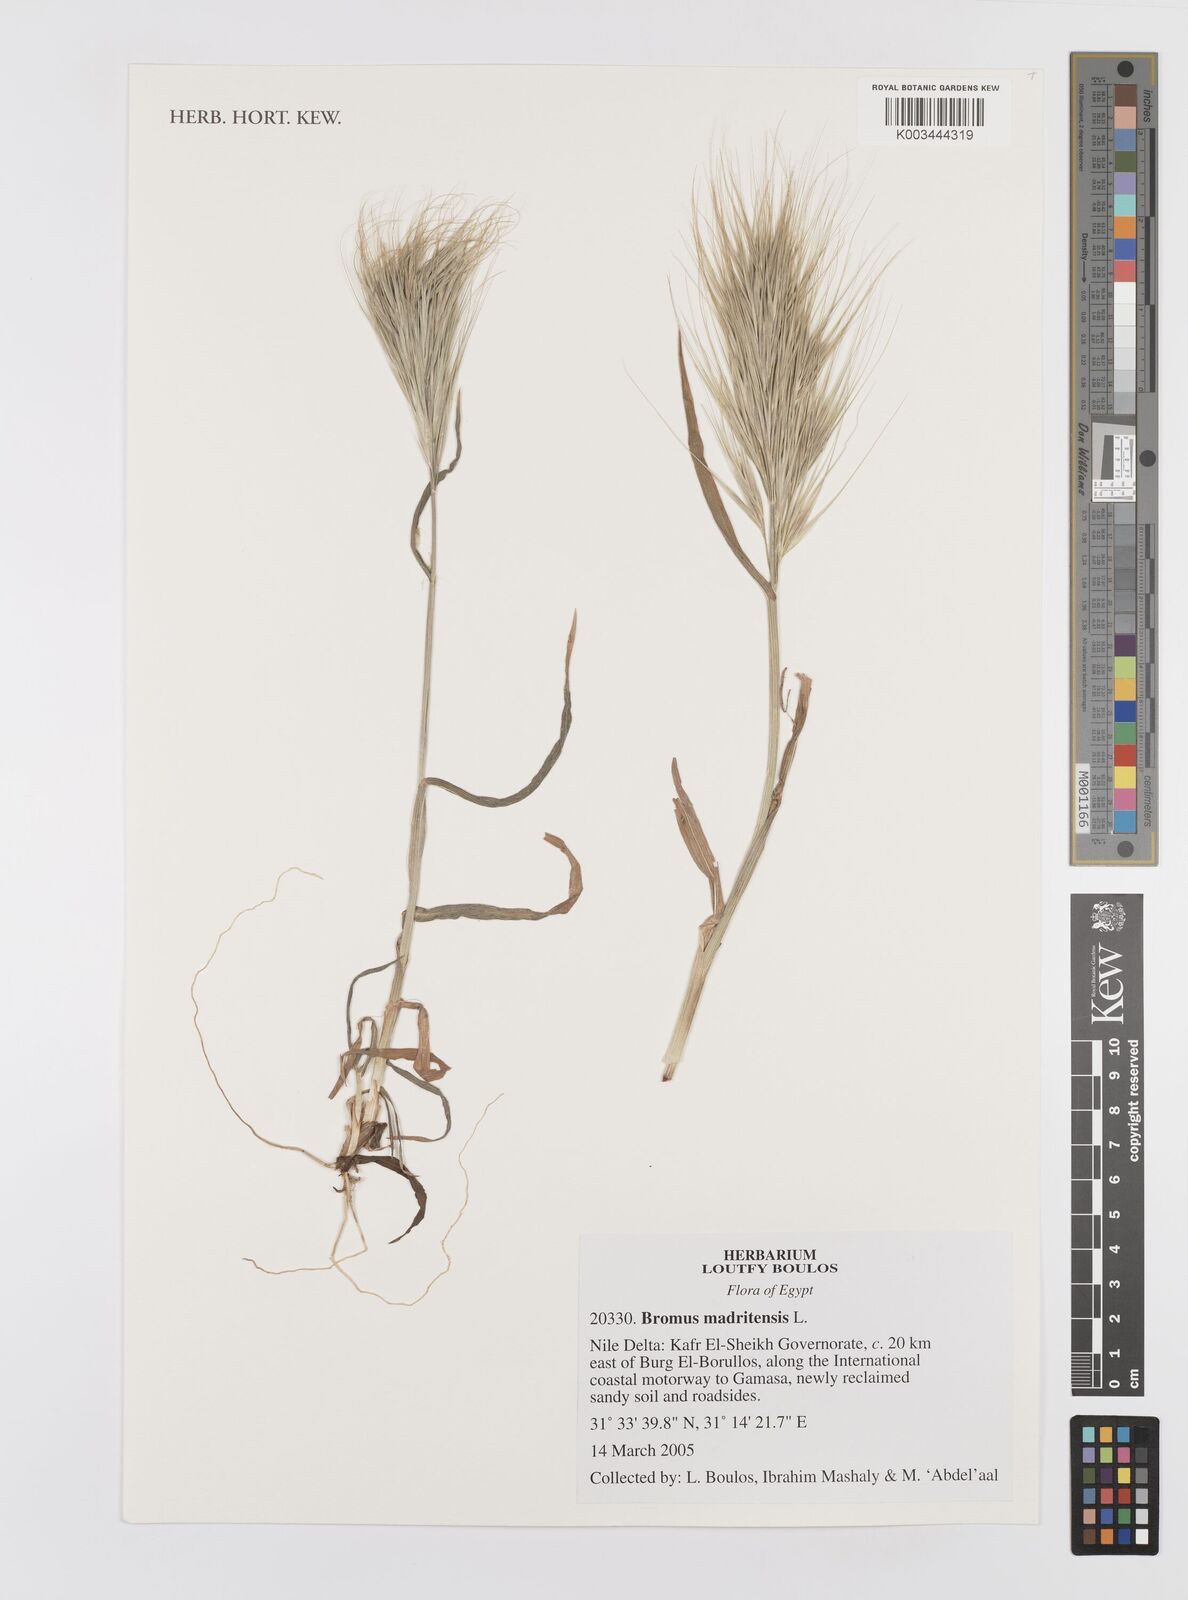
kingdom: Plantae
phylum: Tracheophyta
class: Liliopsida
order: Poales
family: Poaceae
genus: Bromus
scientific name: Bromus madritensis
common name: Compact brome
